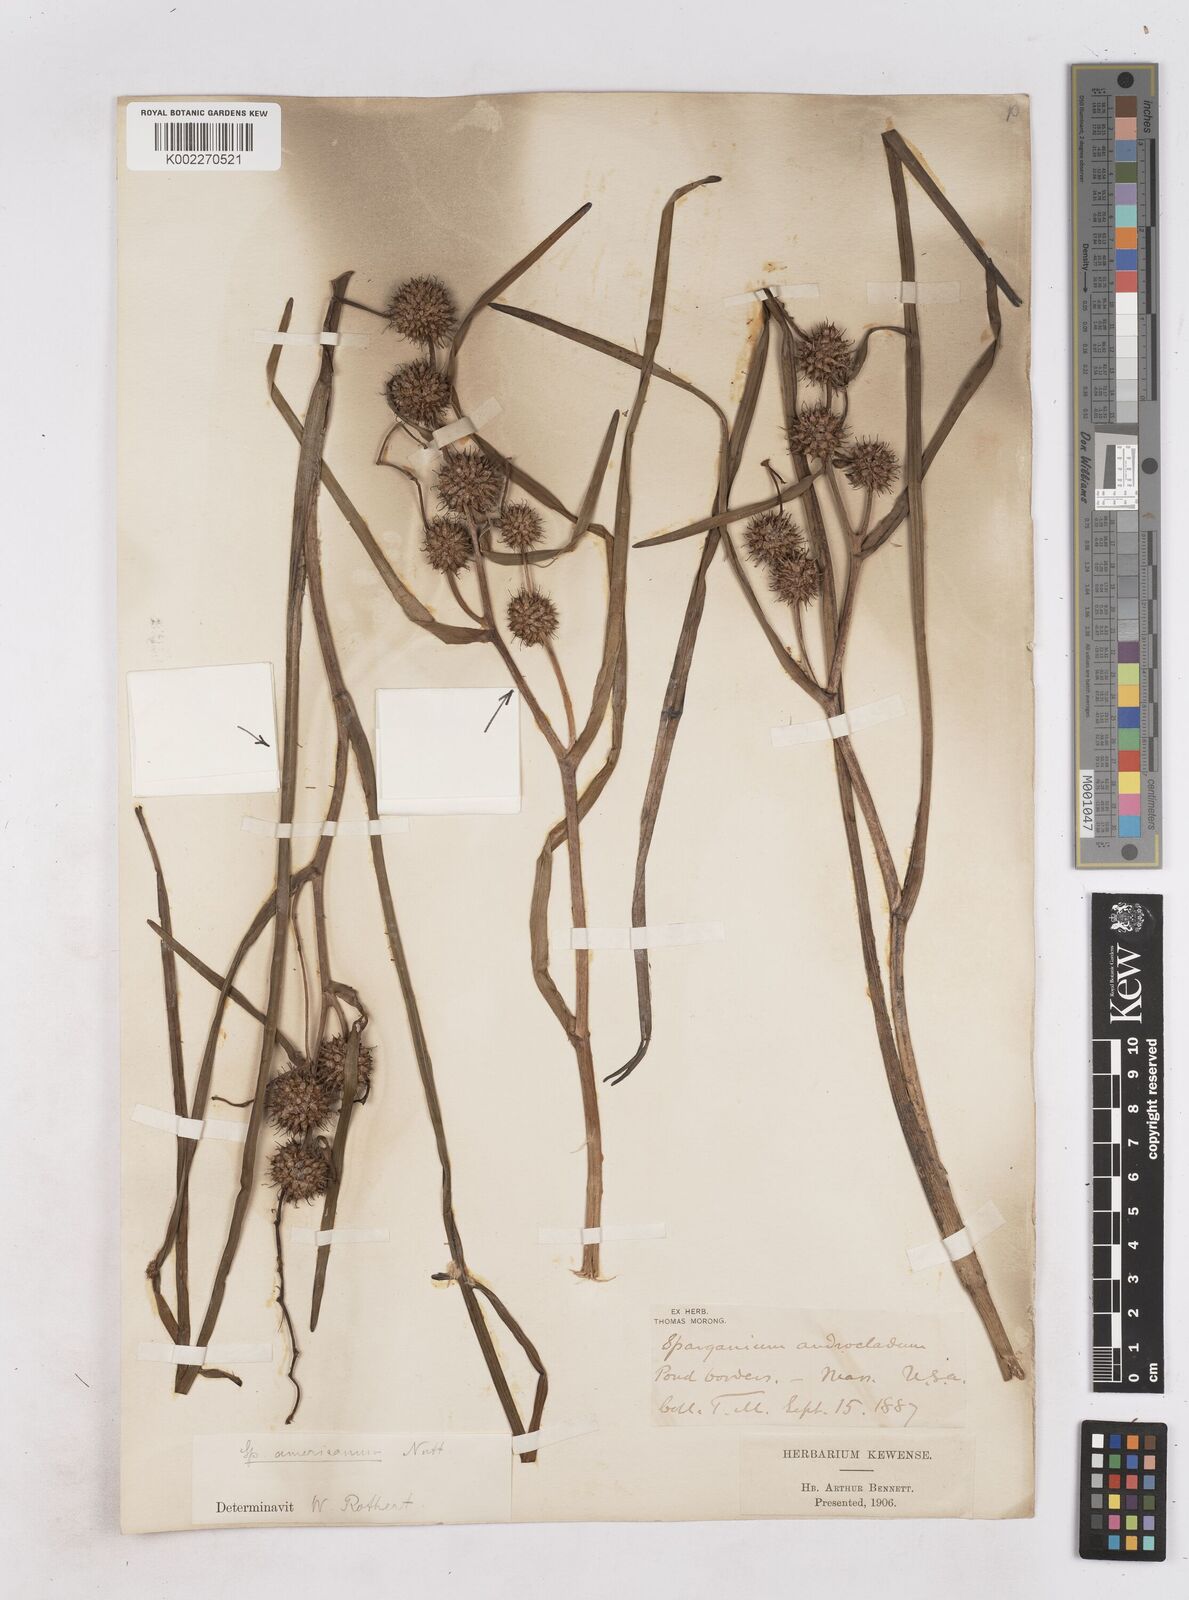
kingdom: Plantae
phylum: Tracheophyta
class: Liliopsida
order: Poales
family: Typhaceae
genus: Sparganium
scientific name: Sparganium americanum
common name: American burreed
